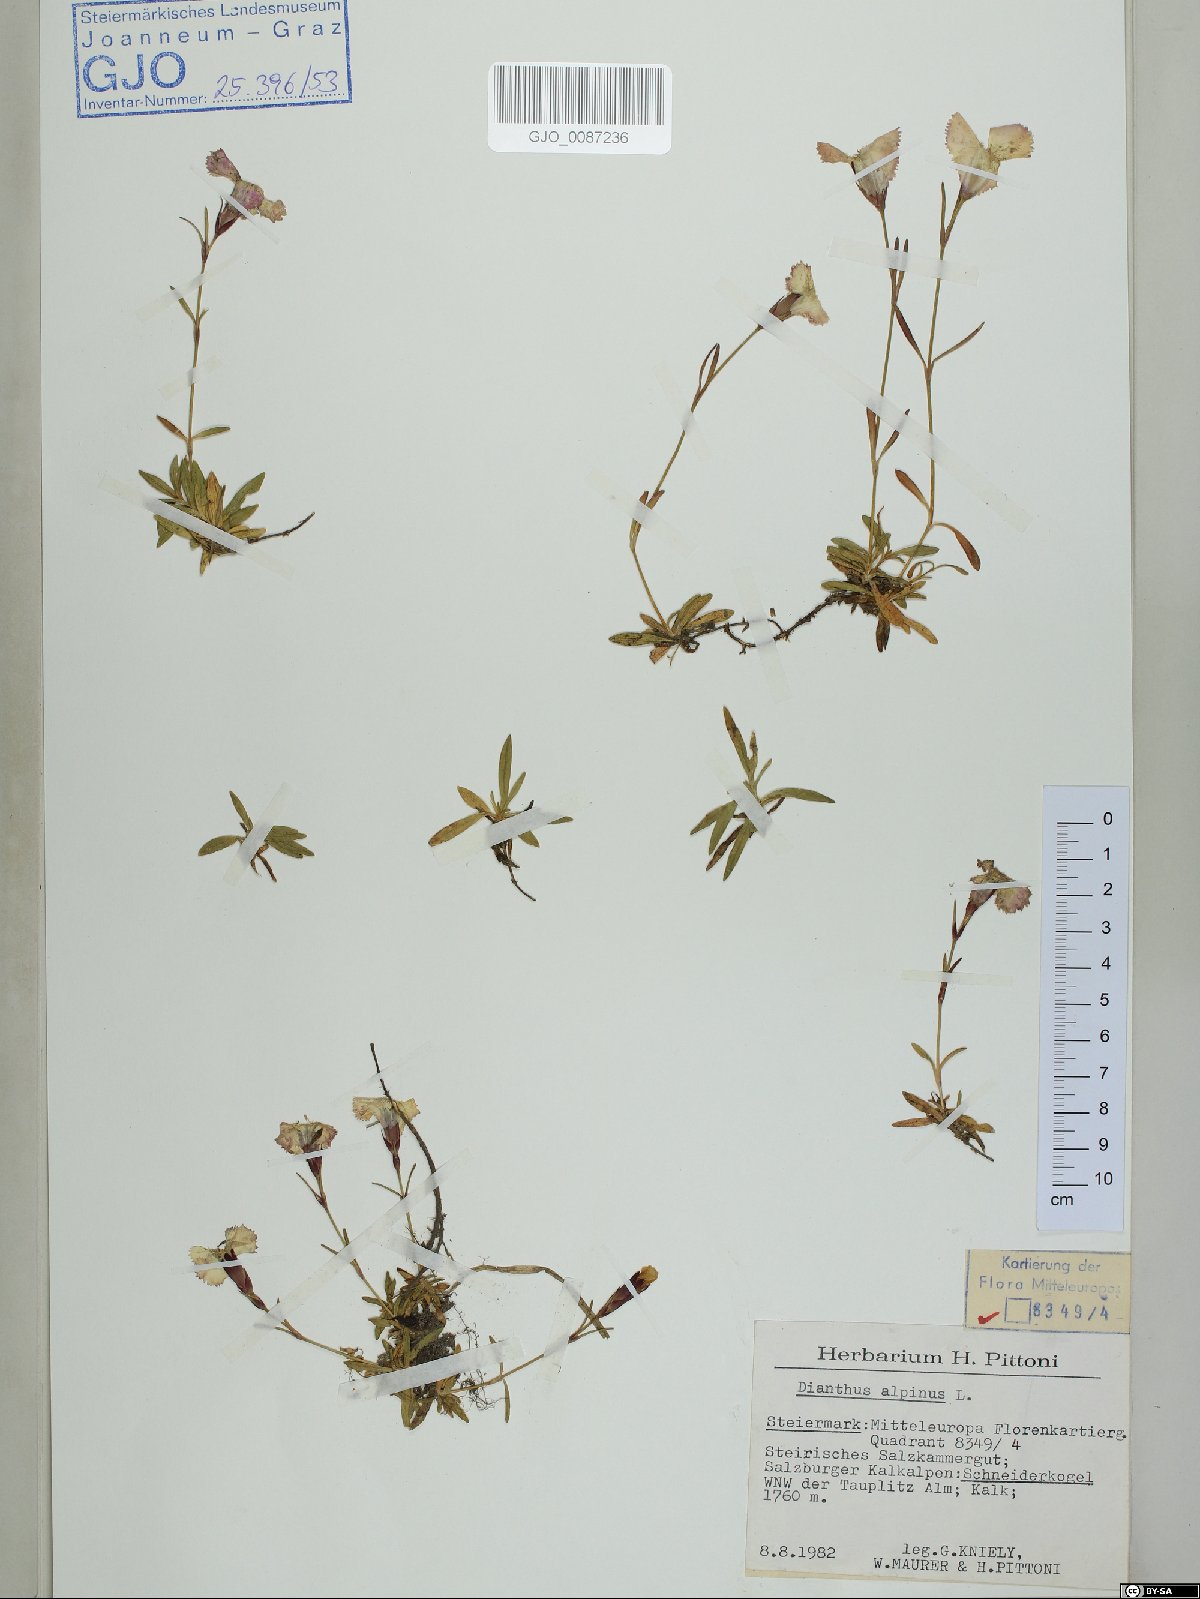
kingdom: Plantae
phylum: Tracheophyta
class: Magnoliopsida
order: Caryophyllales
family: Caryophyllaceae
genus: Dianthus
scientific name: Dianthus alpinus
